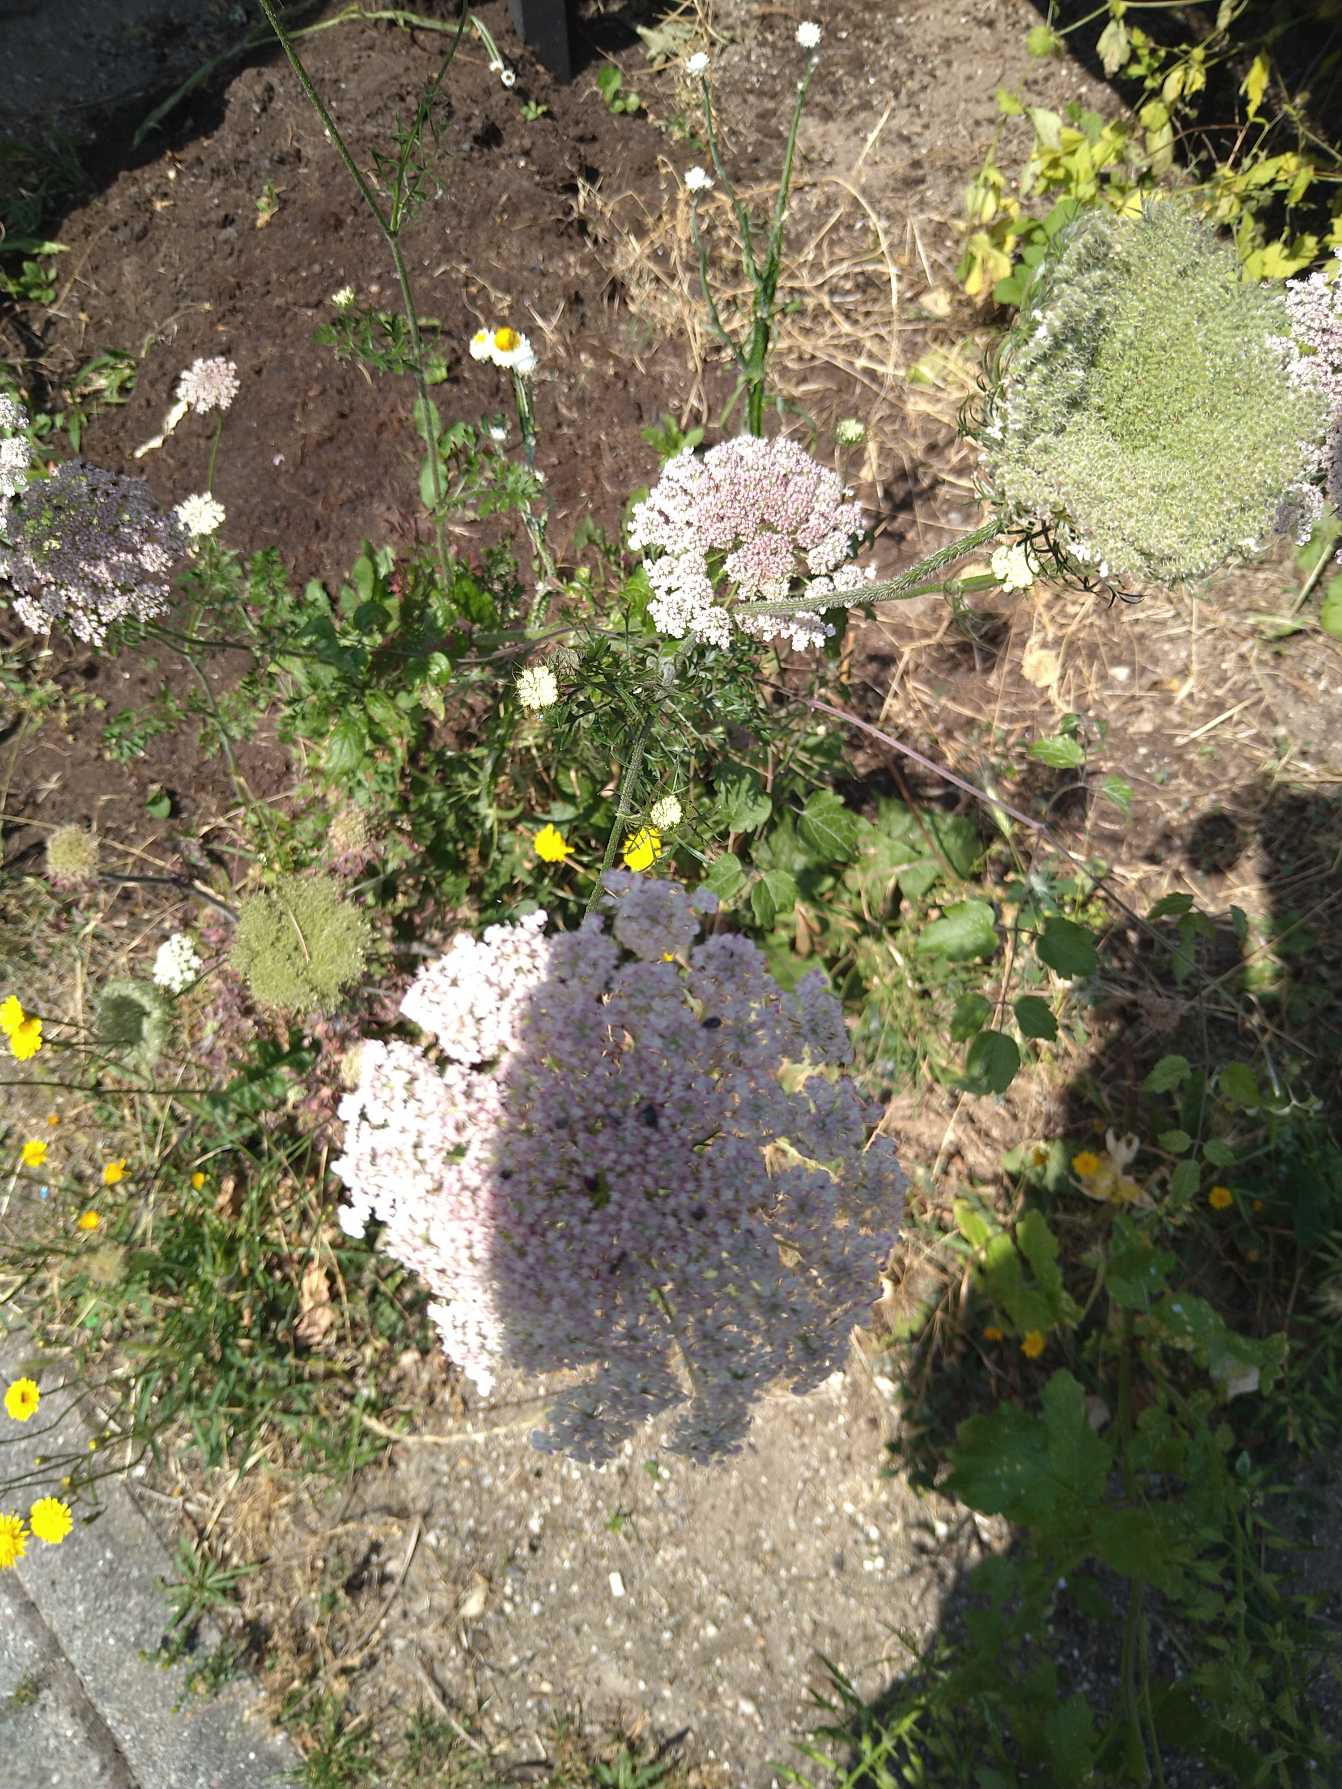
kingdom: Plantae
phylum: Tracheophyta
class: Magnoliopsida
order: Apiales
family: Apiaceae
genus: Daucus
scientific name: Daucus carota
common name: Gulerod
